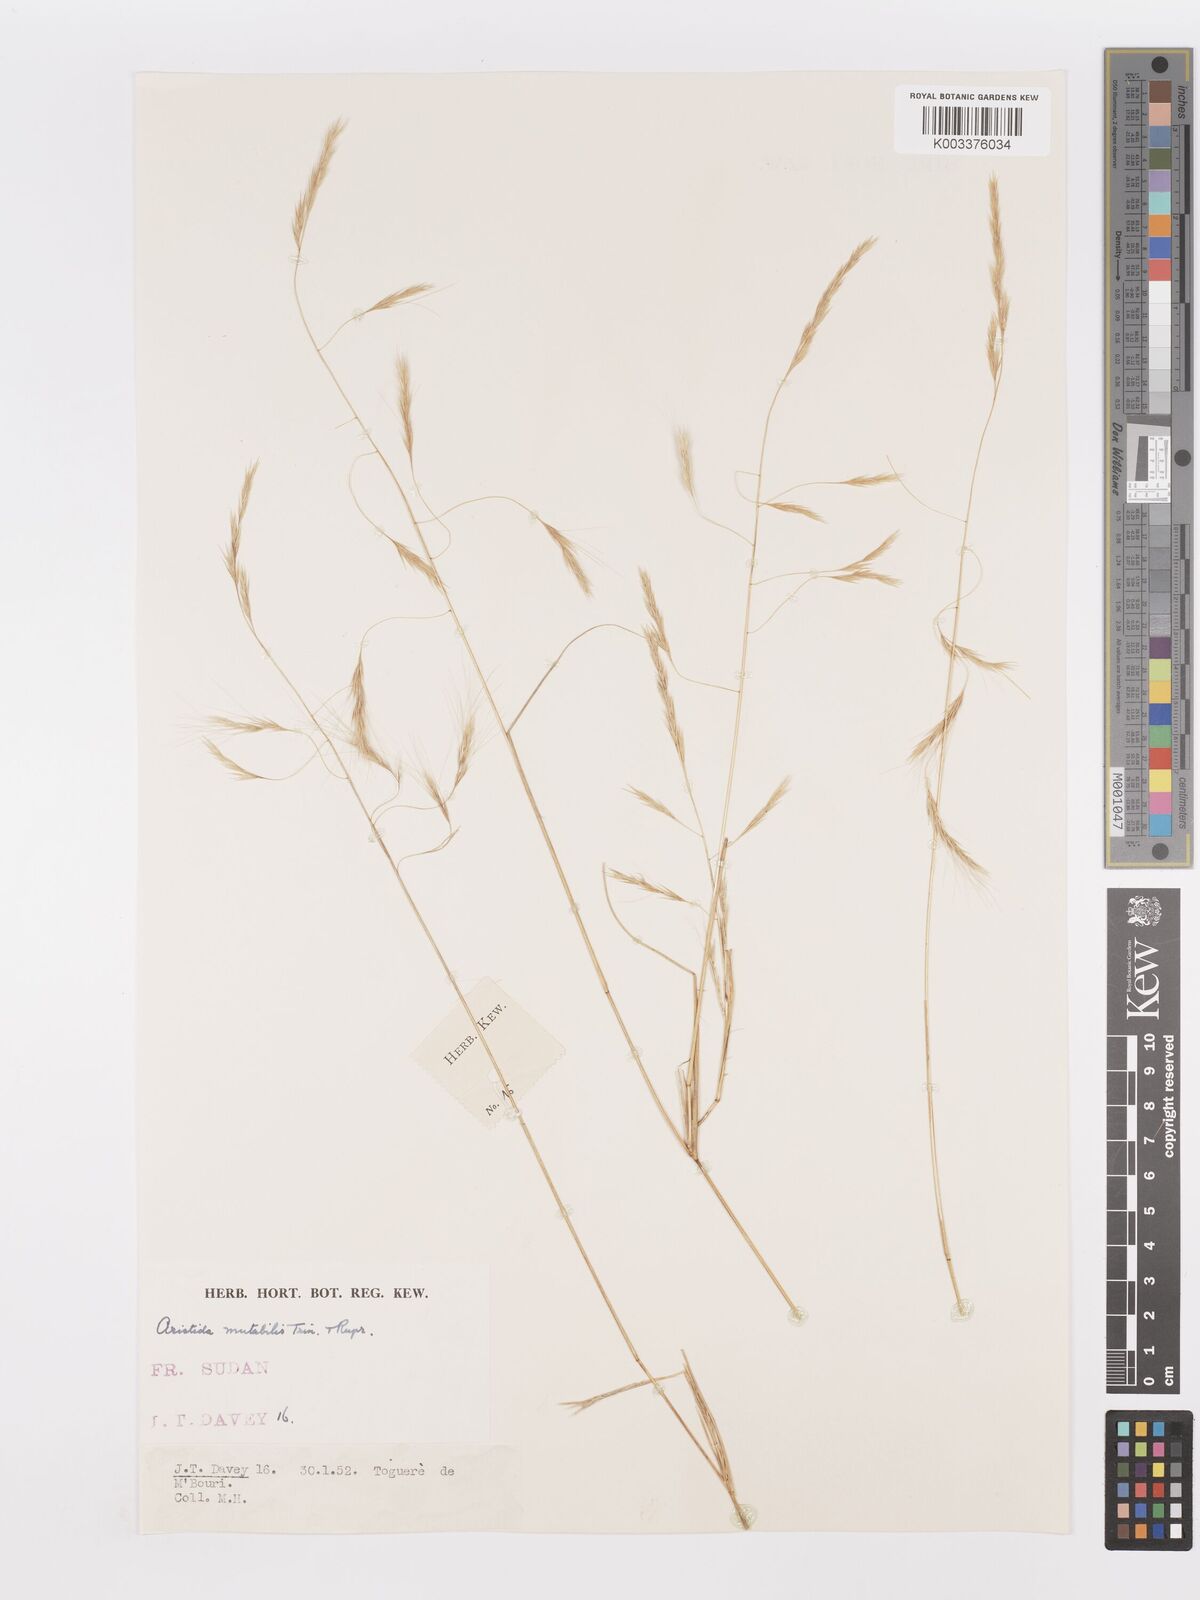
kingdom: Plantae
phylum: Tracheophyta
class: Liliopsida
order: Poales
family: Poaceae
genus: Aristida
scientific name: Aristida mutabilis
